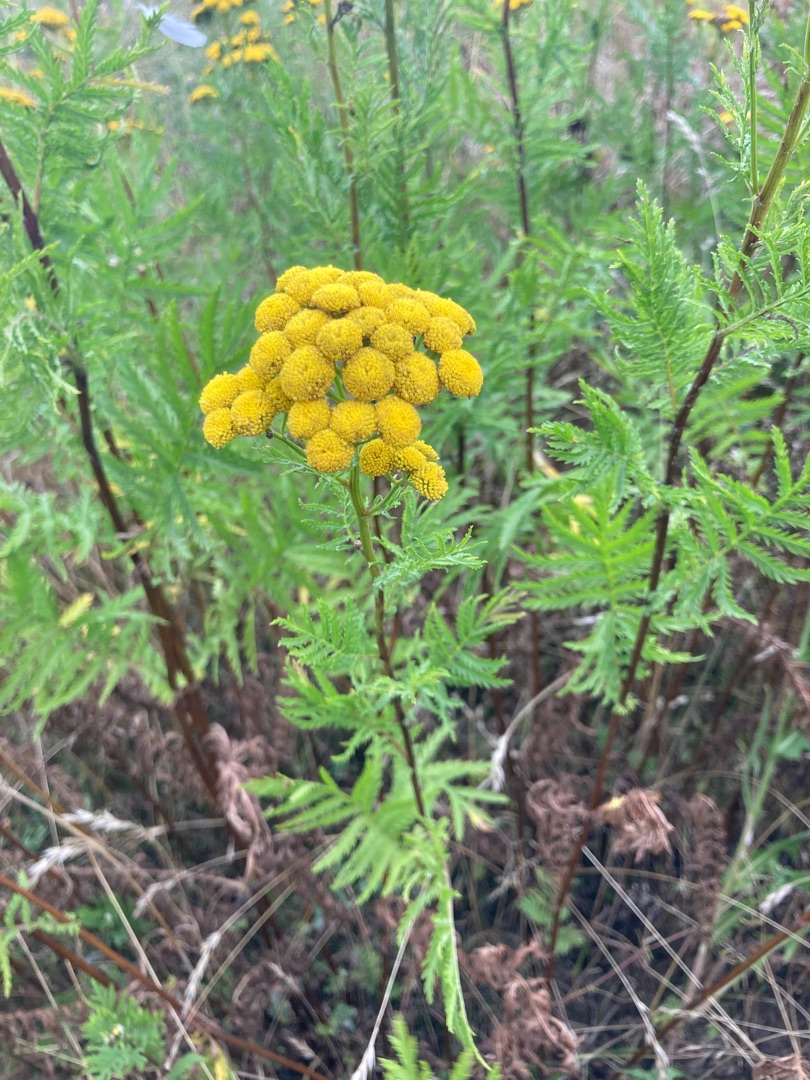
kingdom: Plantae
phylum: Tracheophyta
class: Magnoliopsida
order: Asterales
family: Asteraceae
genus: Tanacetum
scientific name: Tanacetum vulgare
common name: Rejnfan
